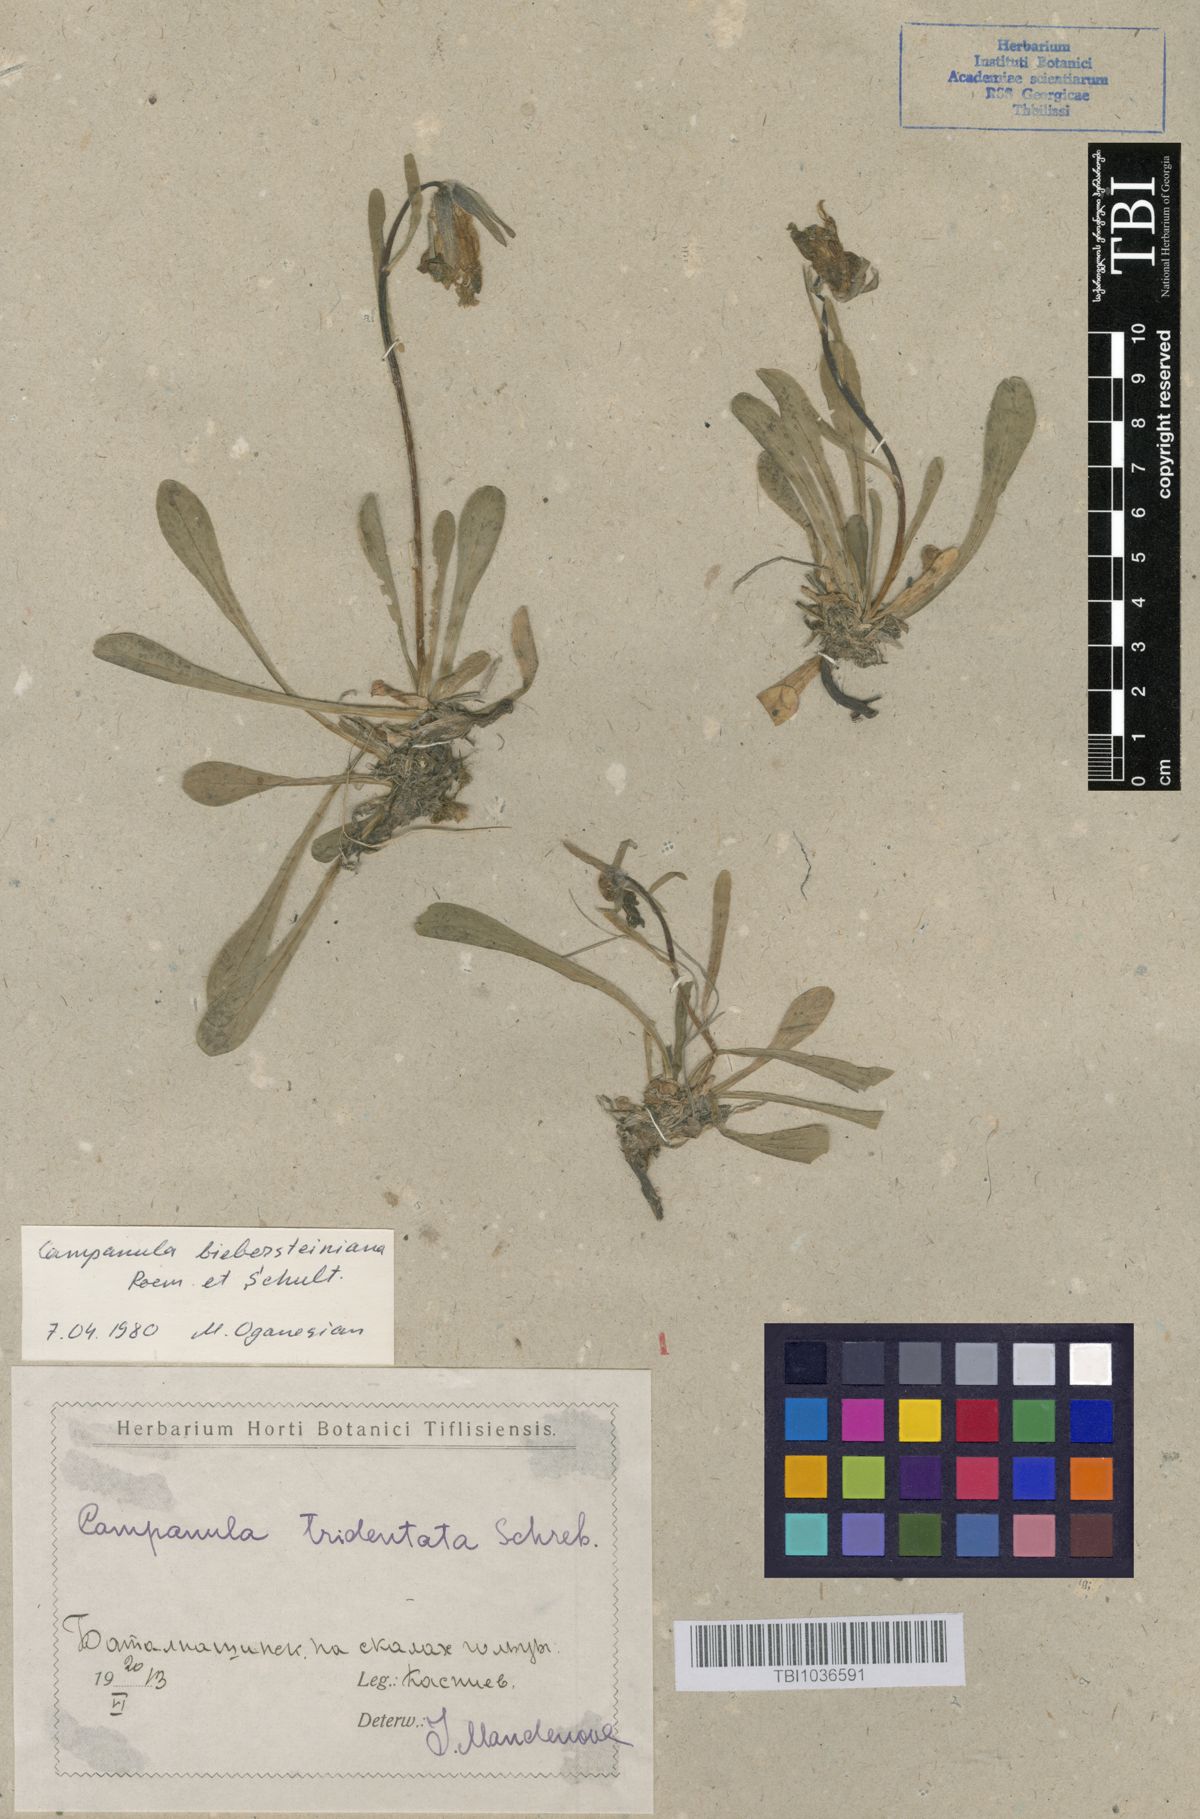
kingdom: Plantae
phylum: Tracheophyta
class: Magnoliopsida
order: Asterales
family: Campanulaceae
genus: Campanula
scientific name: Campanula tridentata
